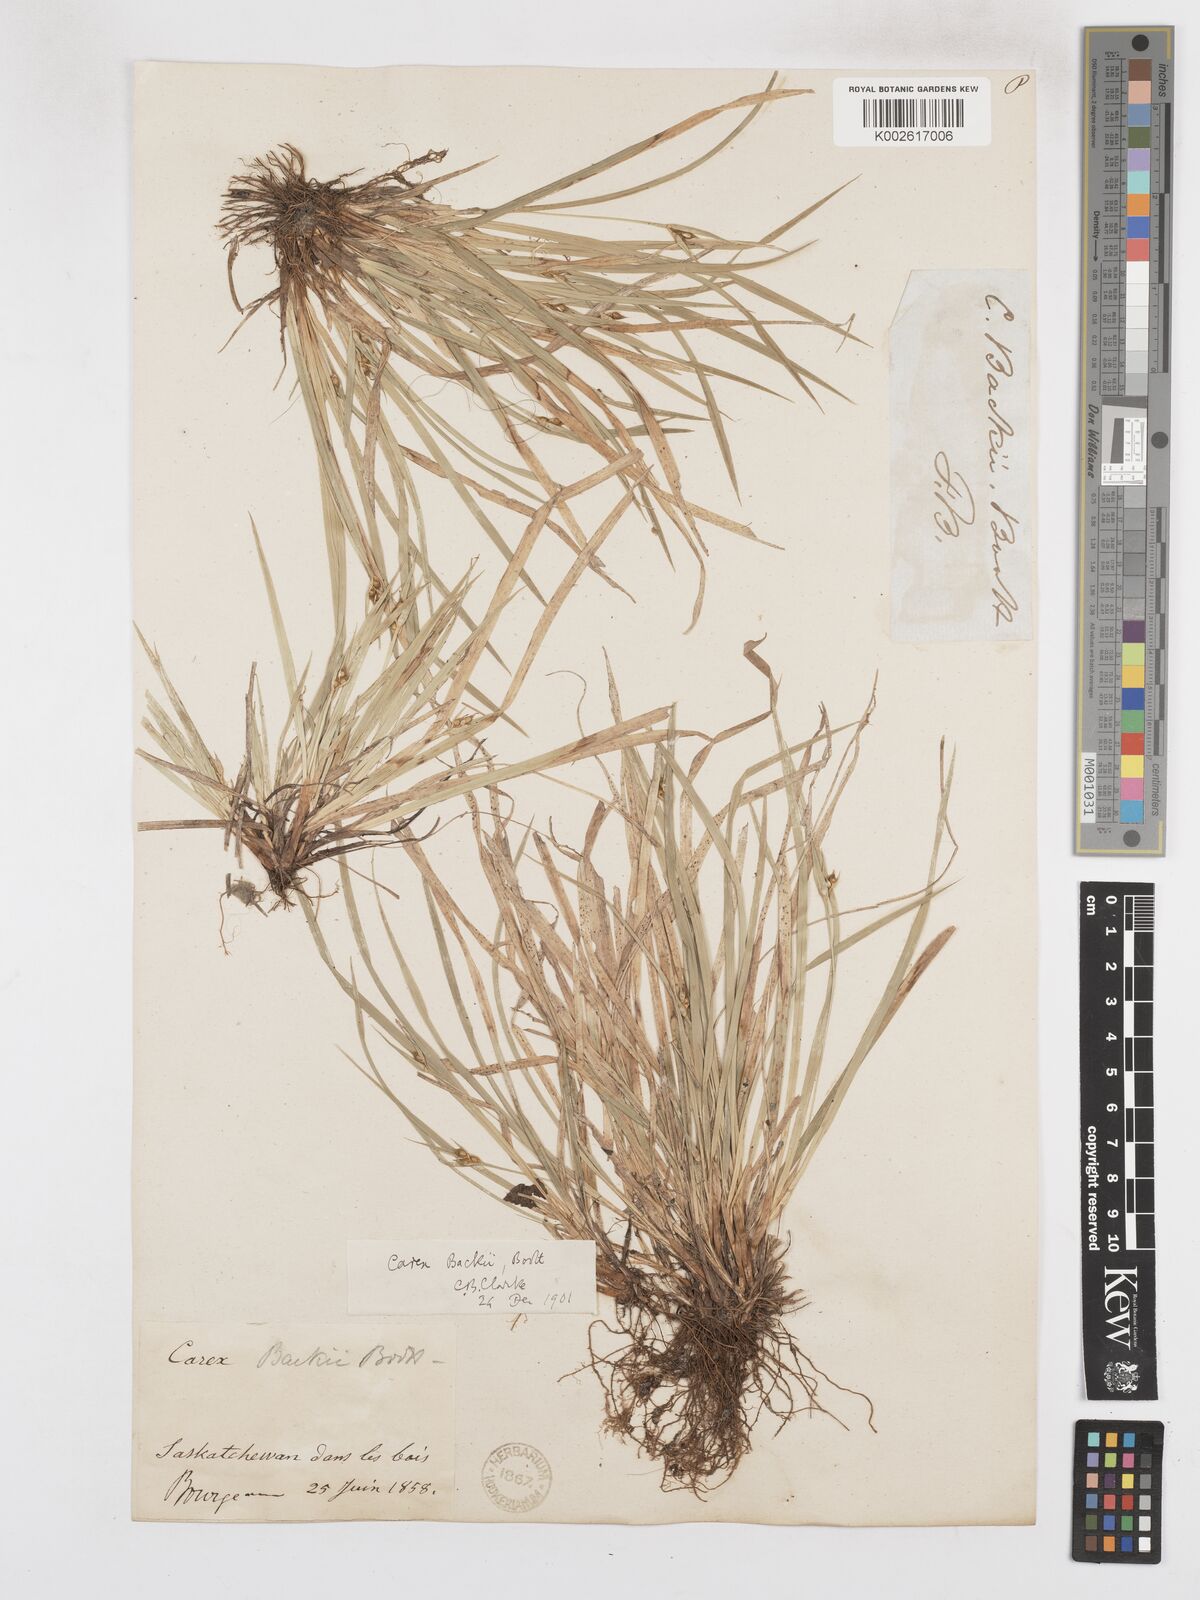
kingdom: Plantae
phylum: Tracheophyta
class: Liliopsida
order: Poales
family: Cyperaceae
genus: Carex
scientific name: Carex backii
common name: Back's sedge
